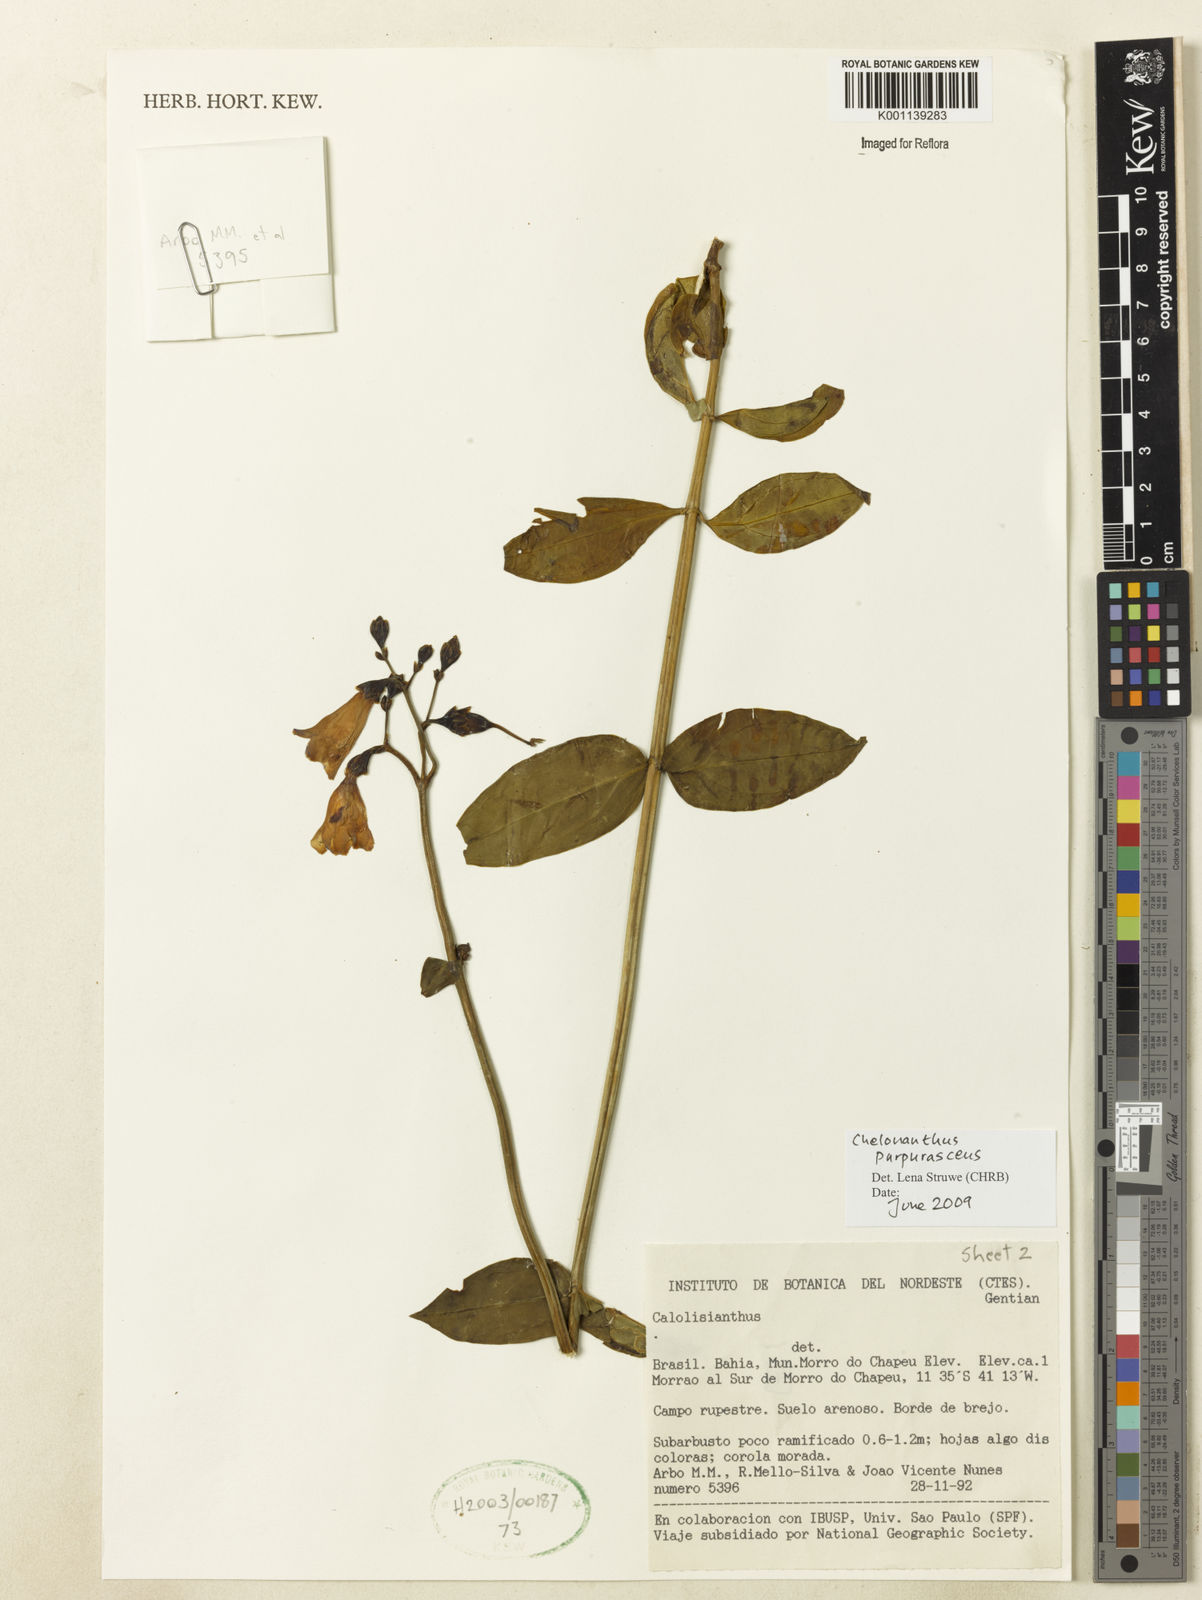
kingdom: Plantae
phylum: Tracheophyta
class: Magnoliopsida
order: Gentianales
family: Gentianaceae
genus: Chelonanthus
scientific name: Chelonanthus purpurascens
